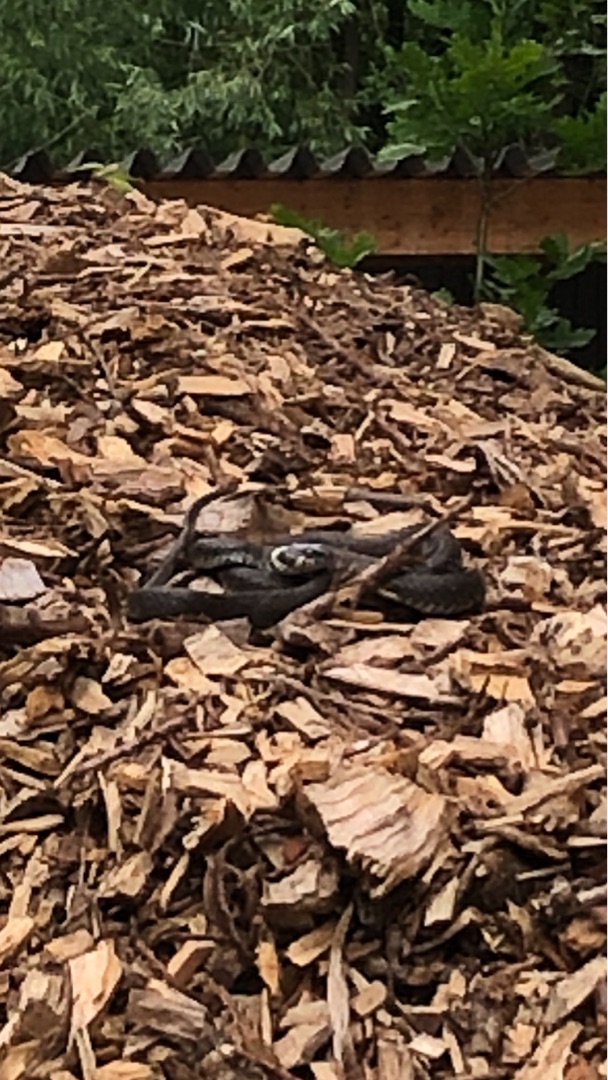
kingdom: Animalia
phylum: Chordata
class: Squamata
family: Colubridae
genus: Natrix
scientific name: Natrix natrix
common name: Snog
